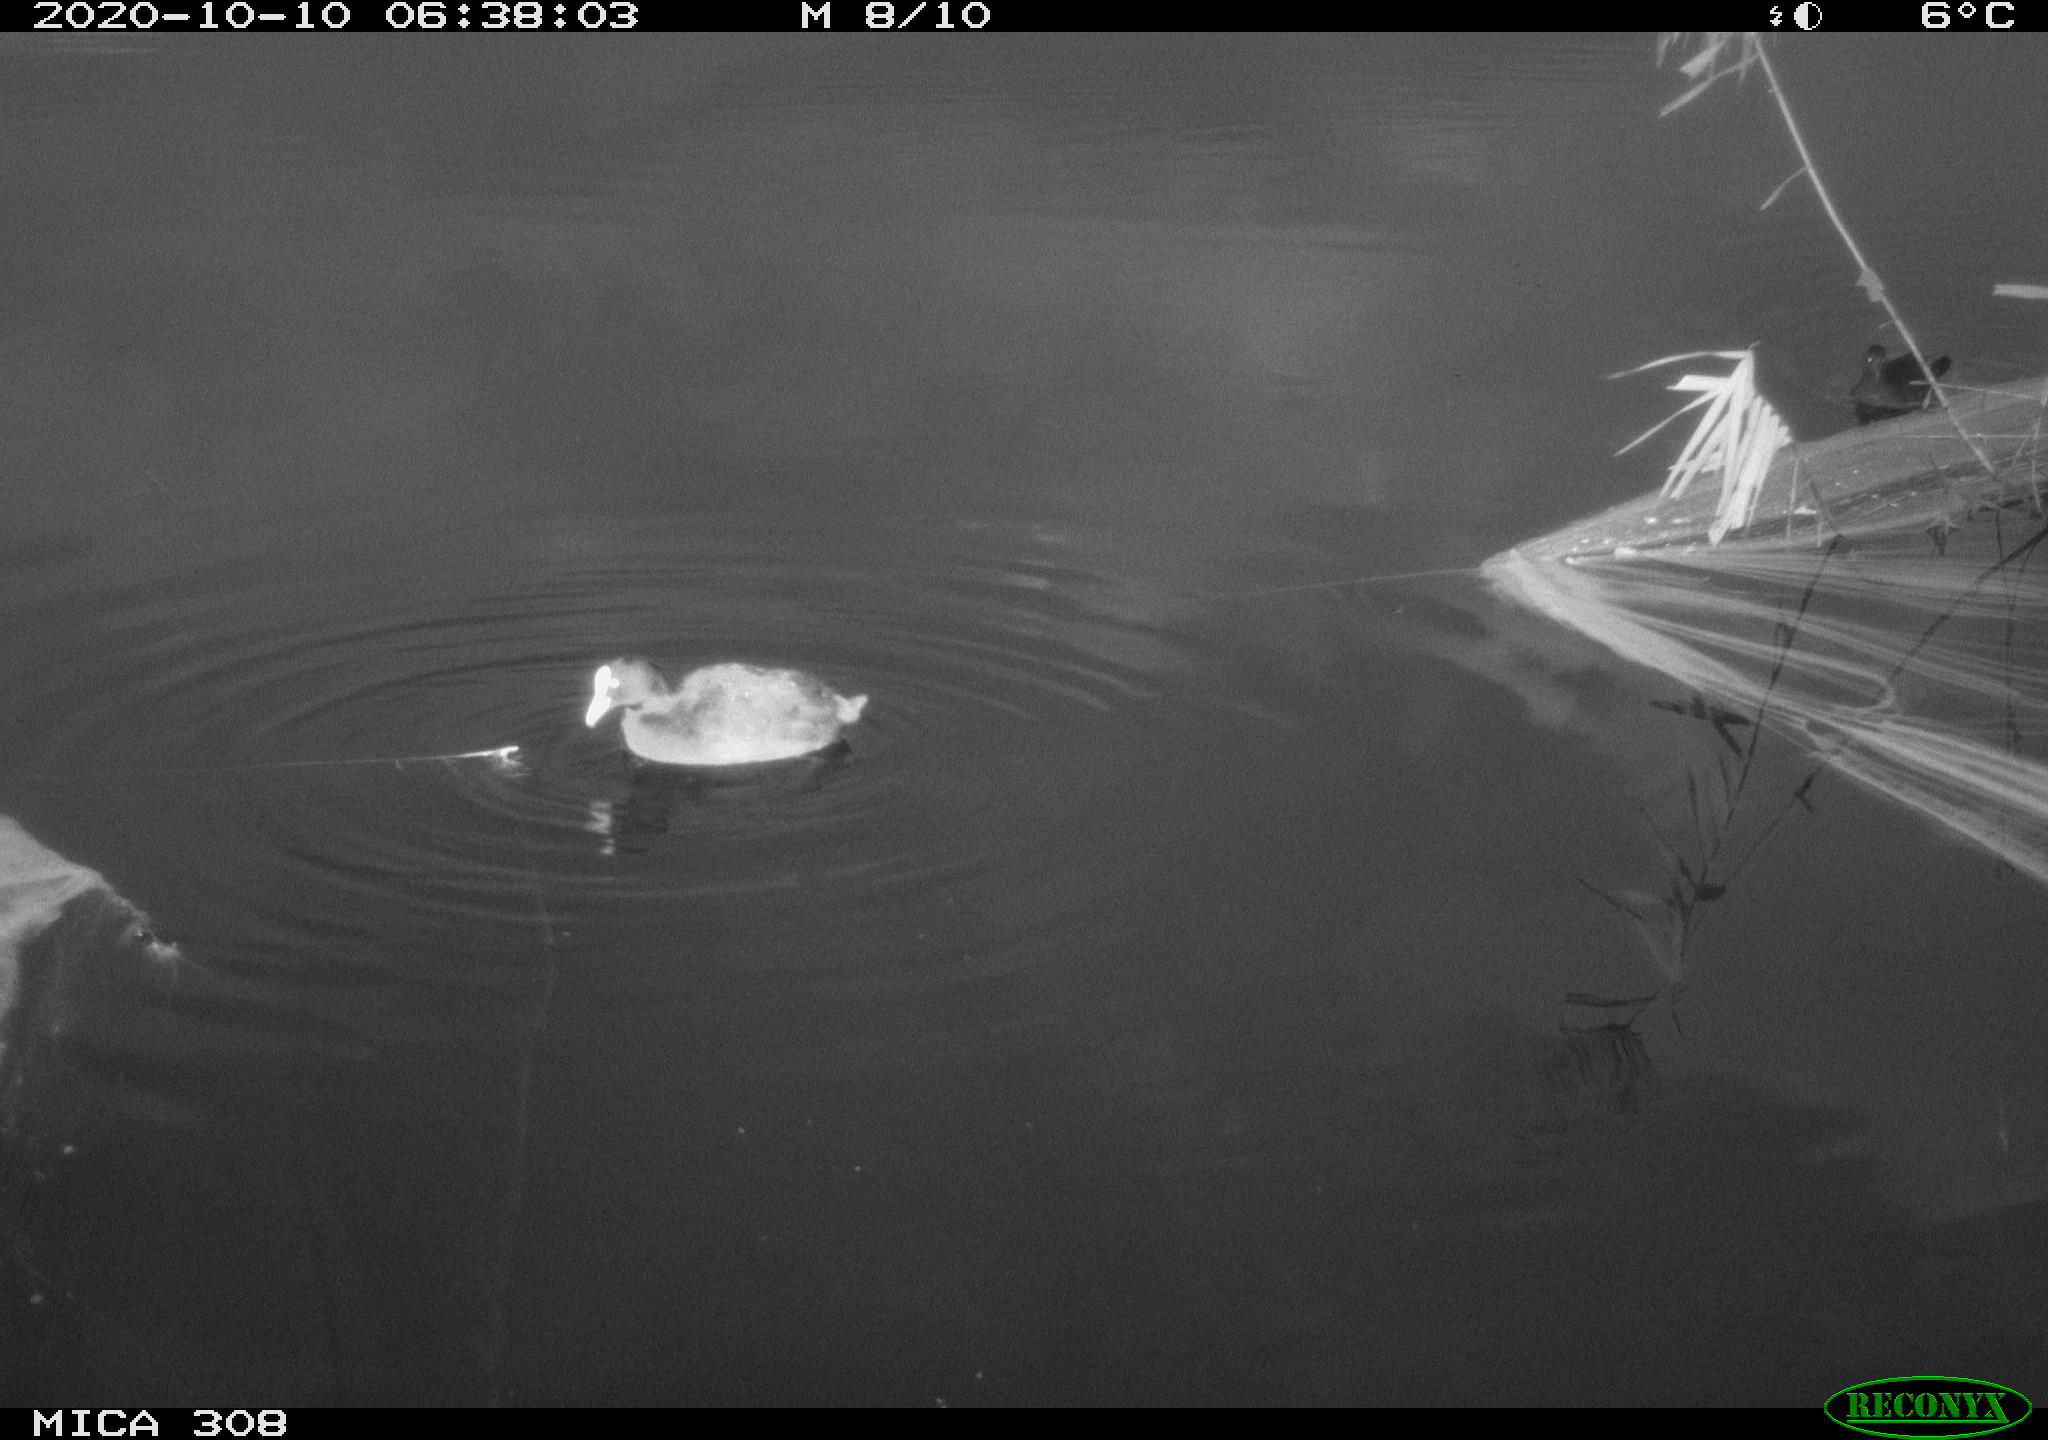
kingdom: Animalia
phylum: Chordata
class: Aves
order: Gruiformes
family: Rallidae
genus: Fulica
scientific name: Fulica atra
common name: Eurasian coot
